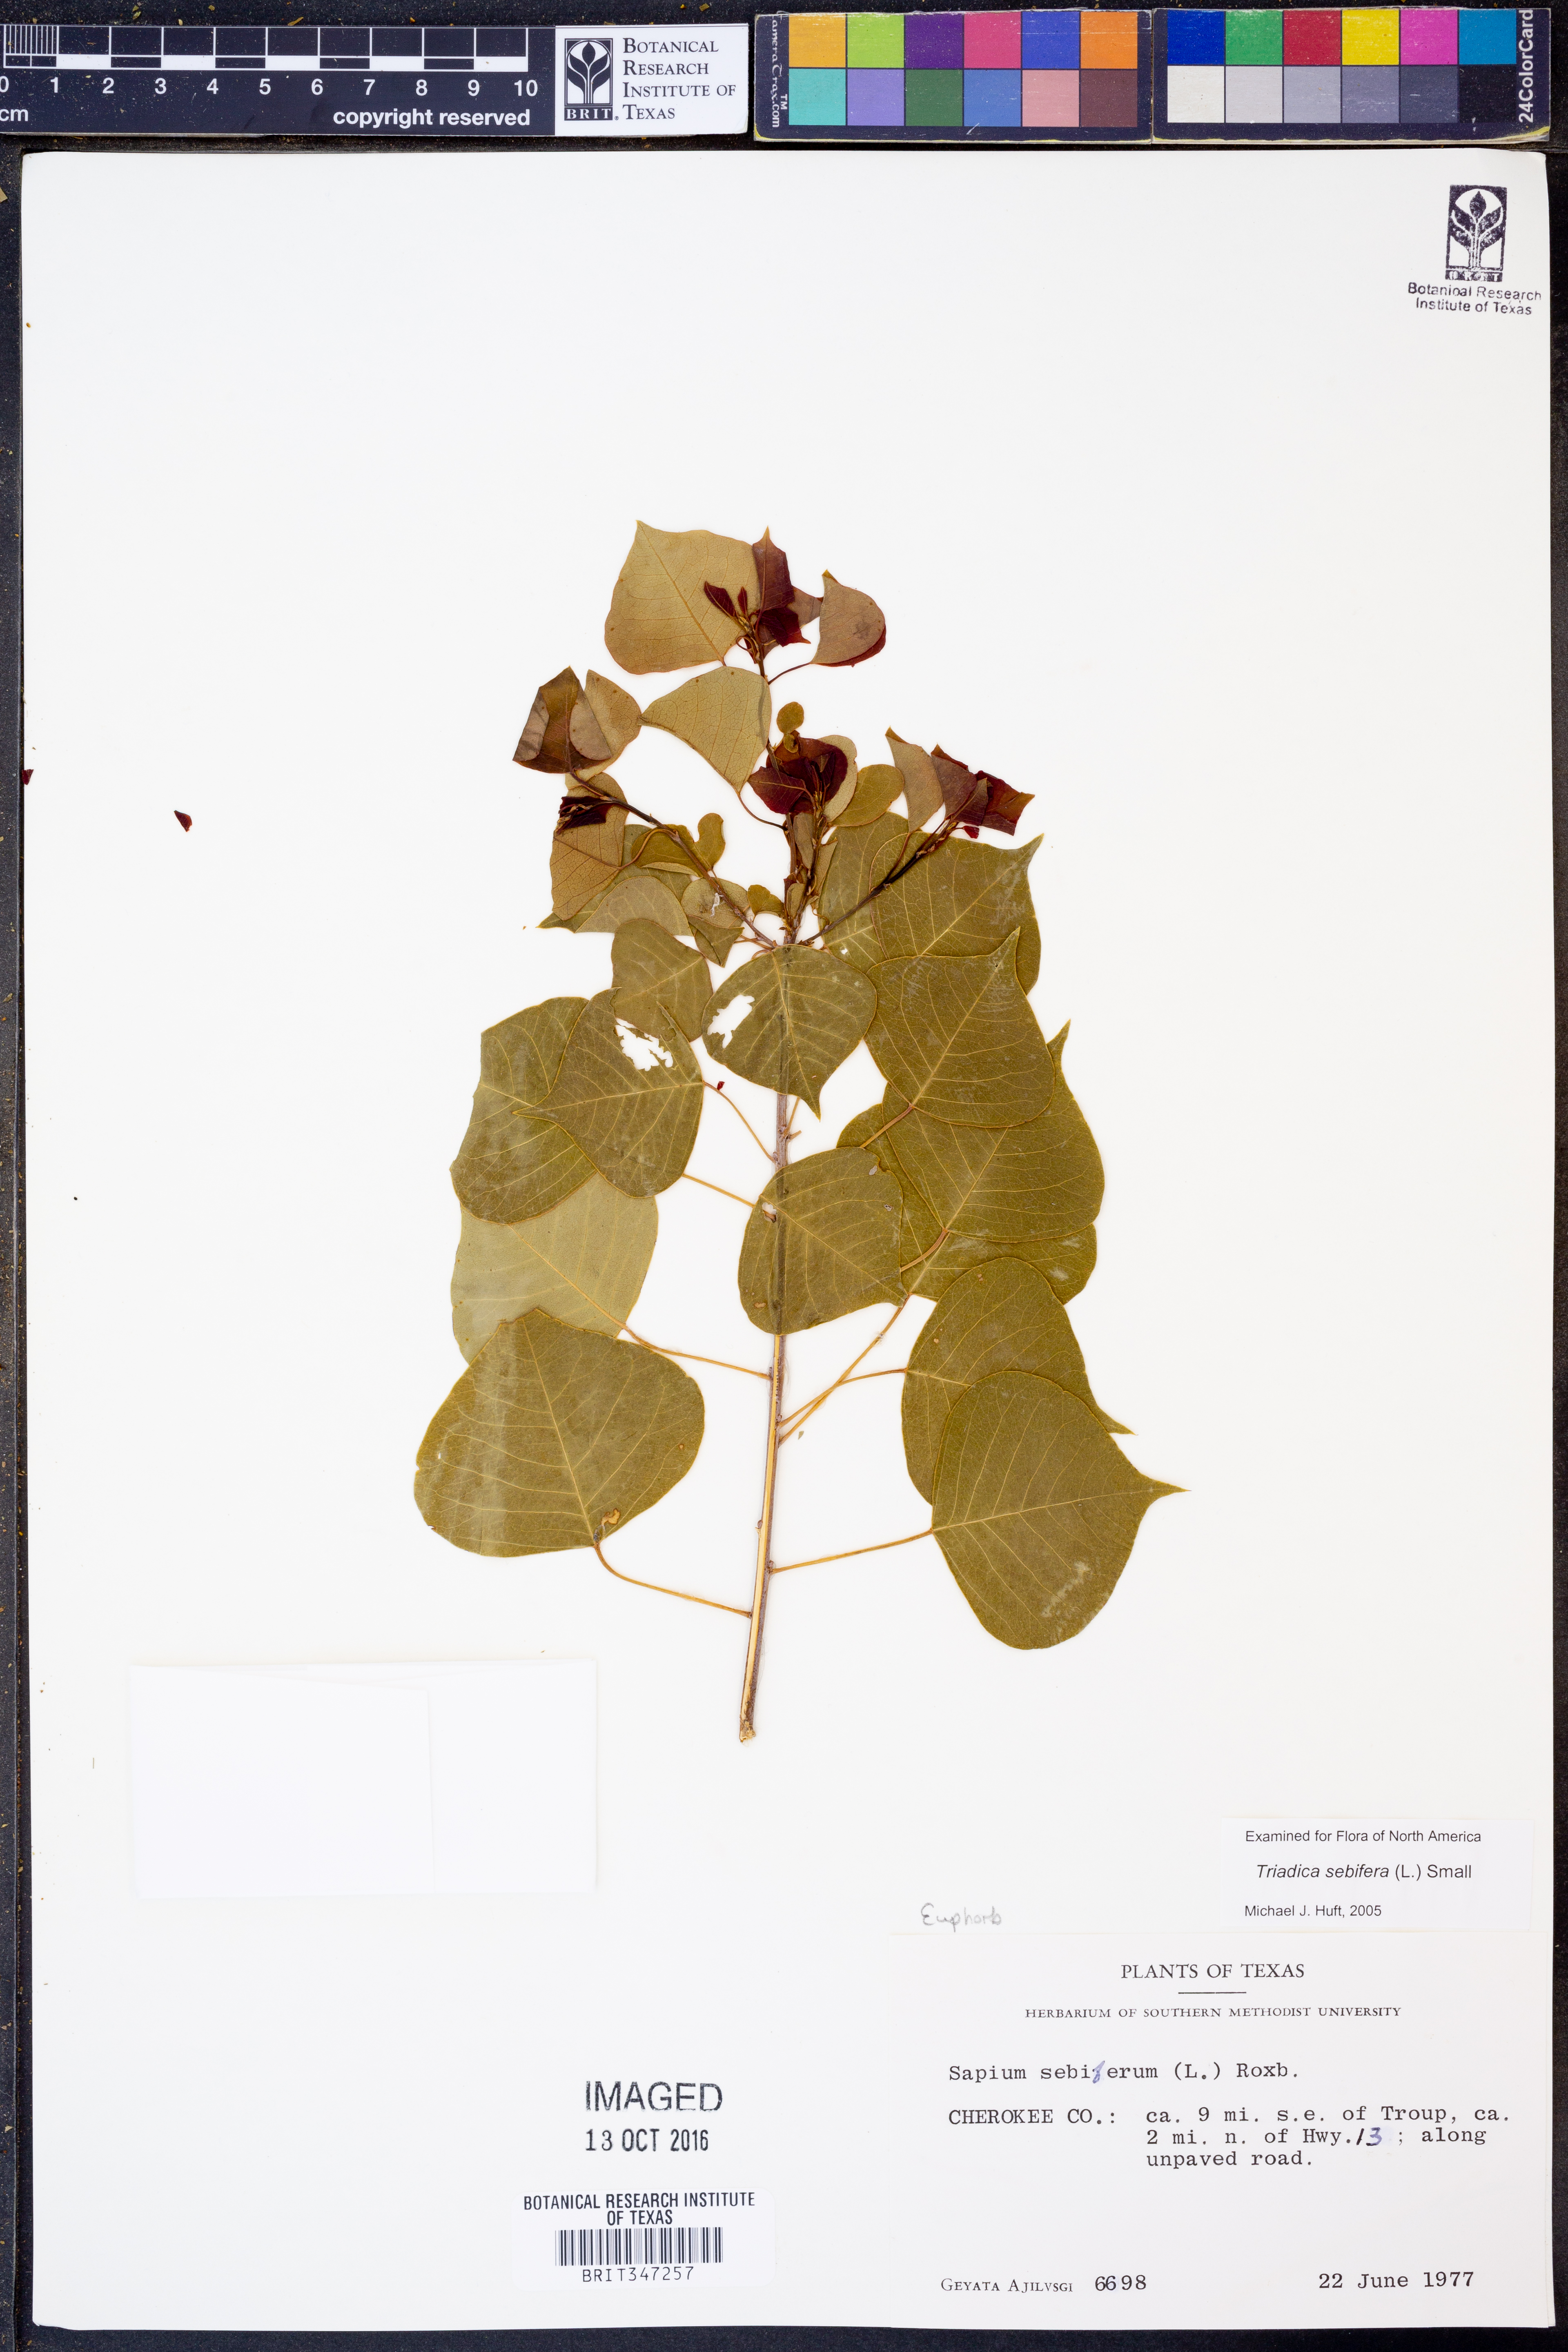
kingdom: Plantae
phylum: Tracheophyta
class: Magnoliopsida
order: Malpighiales
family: Euphorbiaceae
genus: Triadica
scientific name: Triadica sebifera
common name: Chinese tallow
